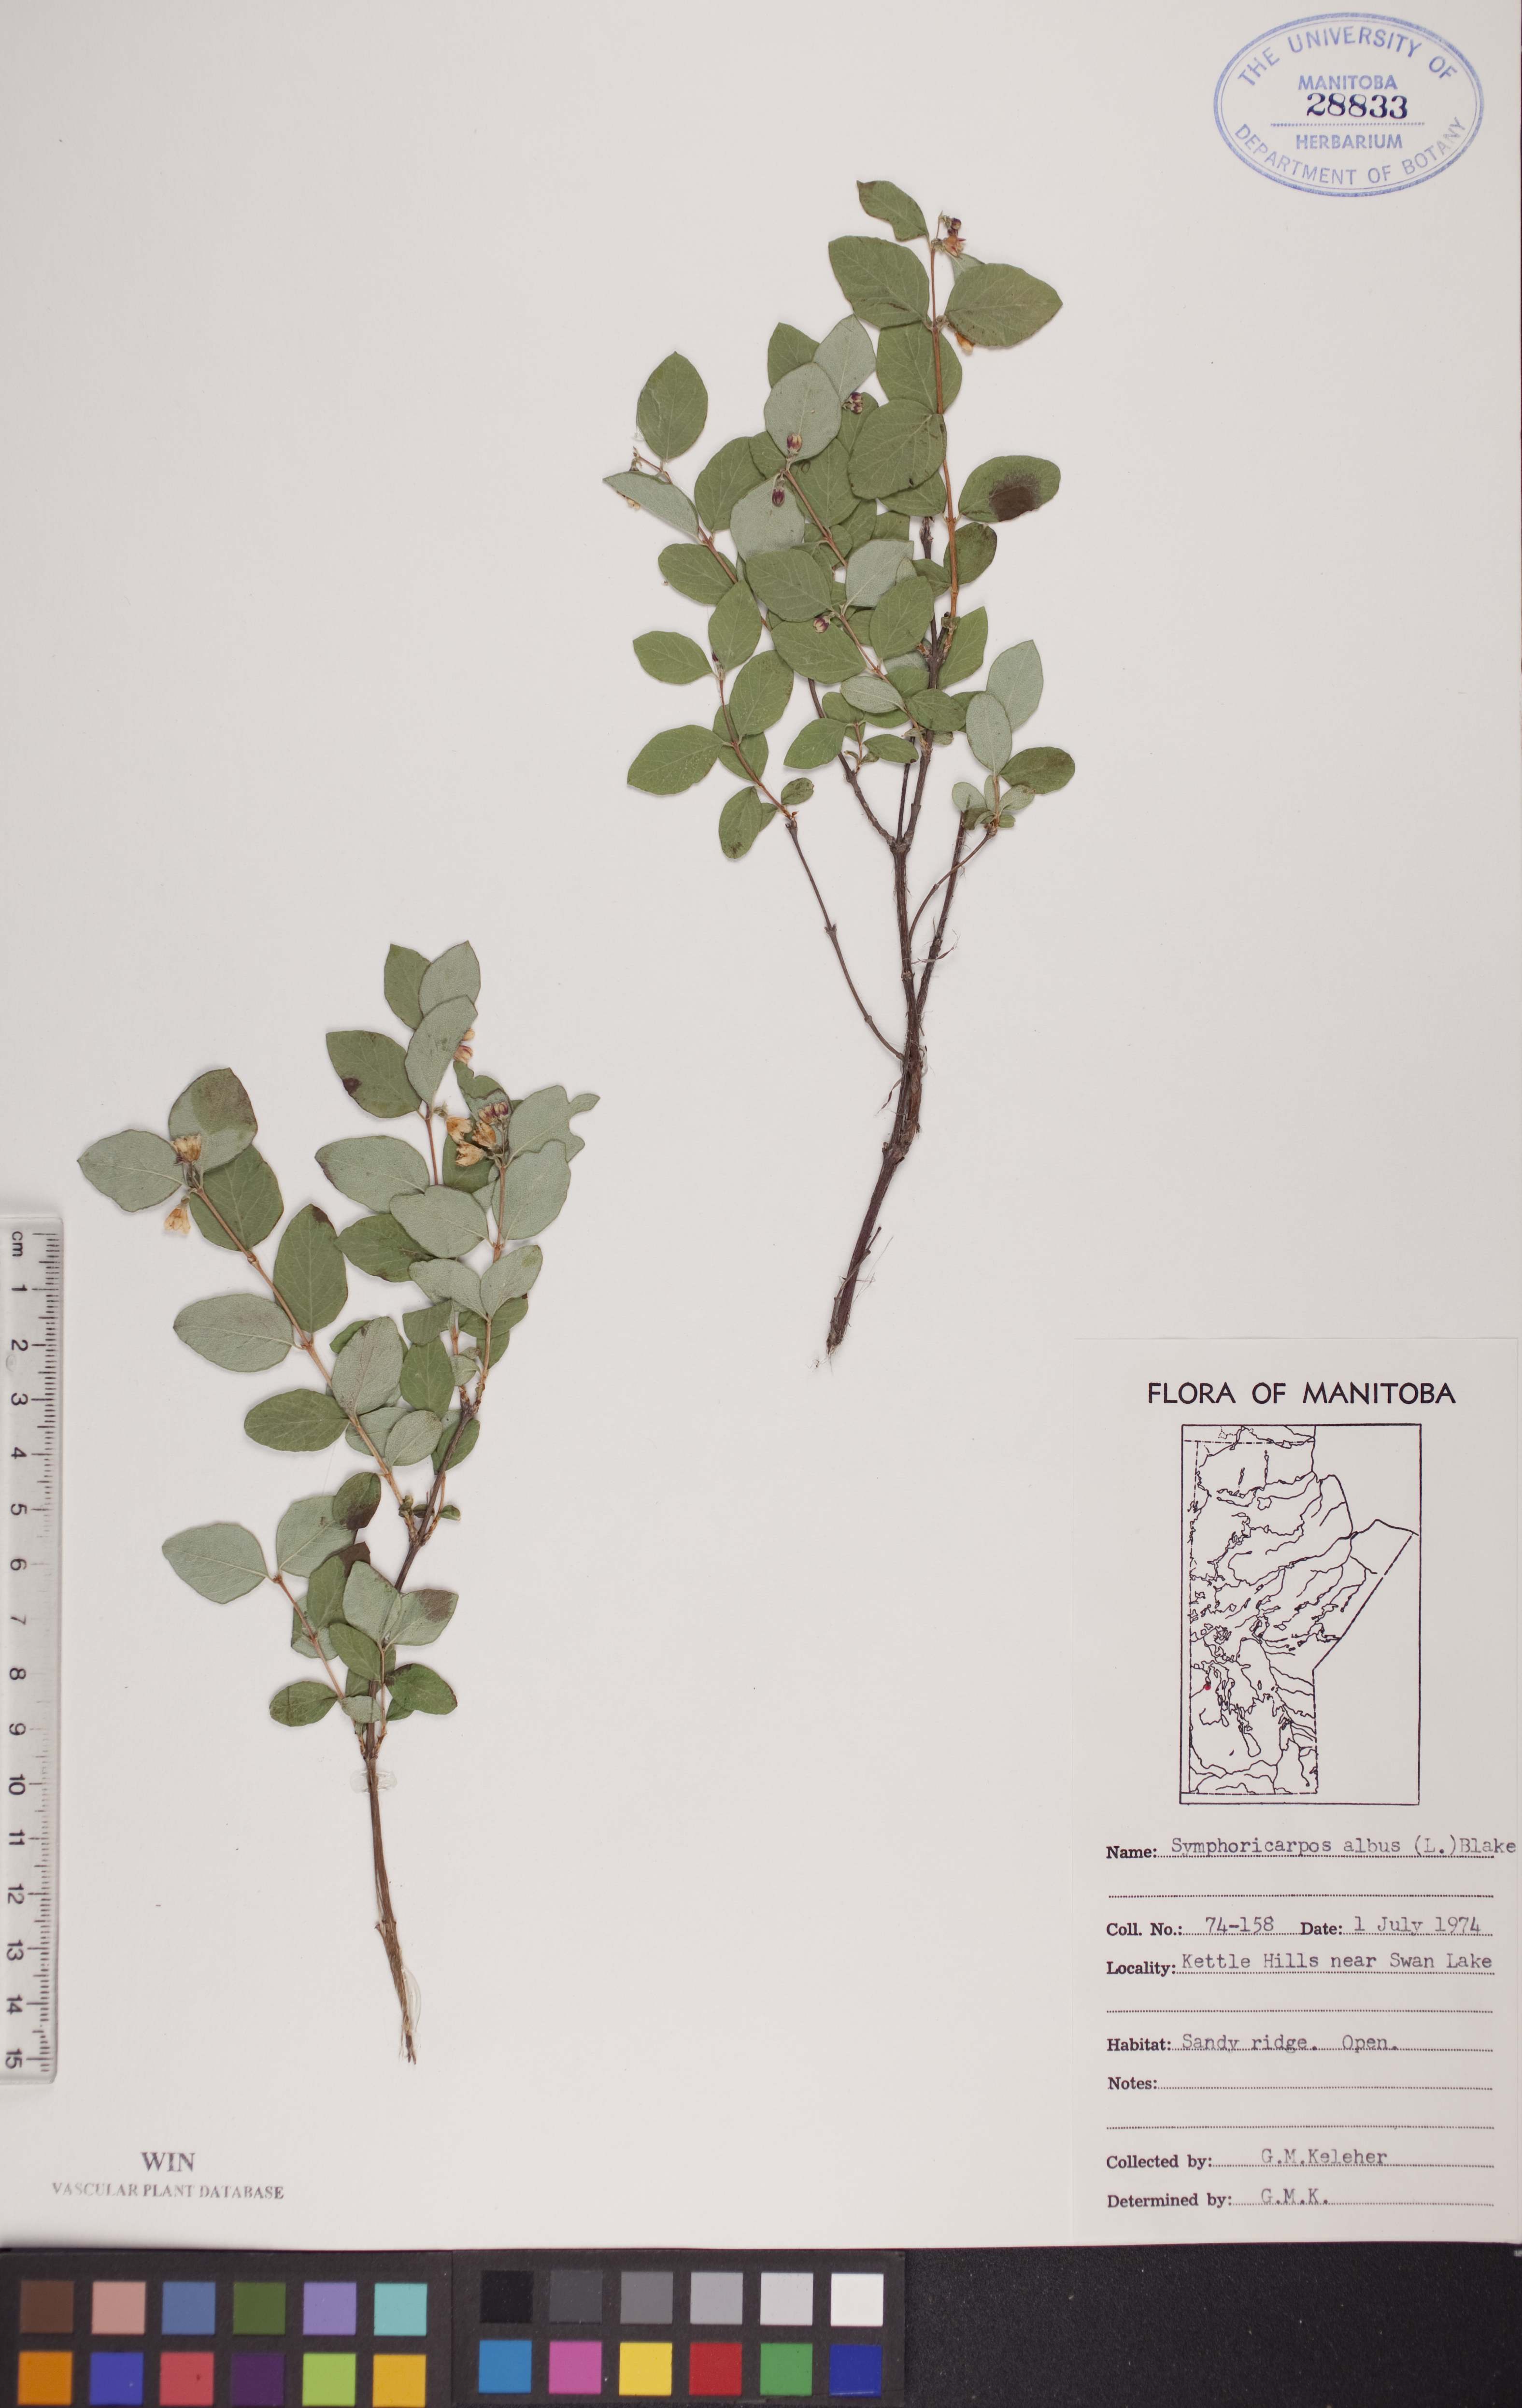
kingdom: Plantae
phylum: Tracheophyta
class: Magnoliopsida
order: Dipsacales
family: Caprifoliaceae
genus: Symphoricarpos
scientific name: Symphoricarpos albus
